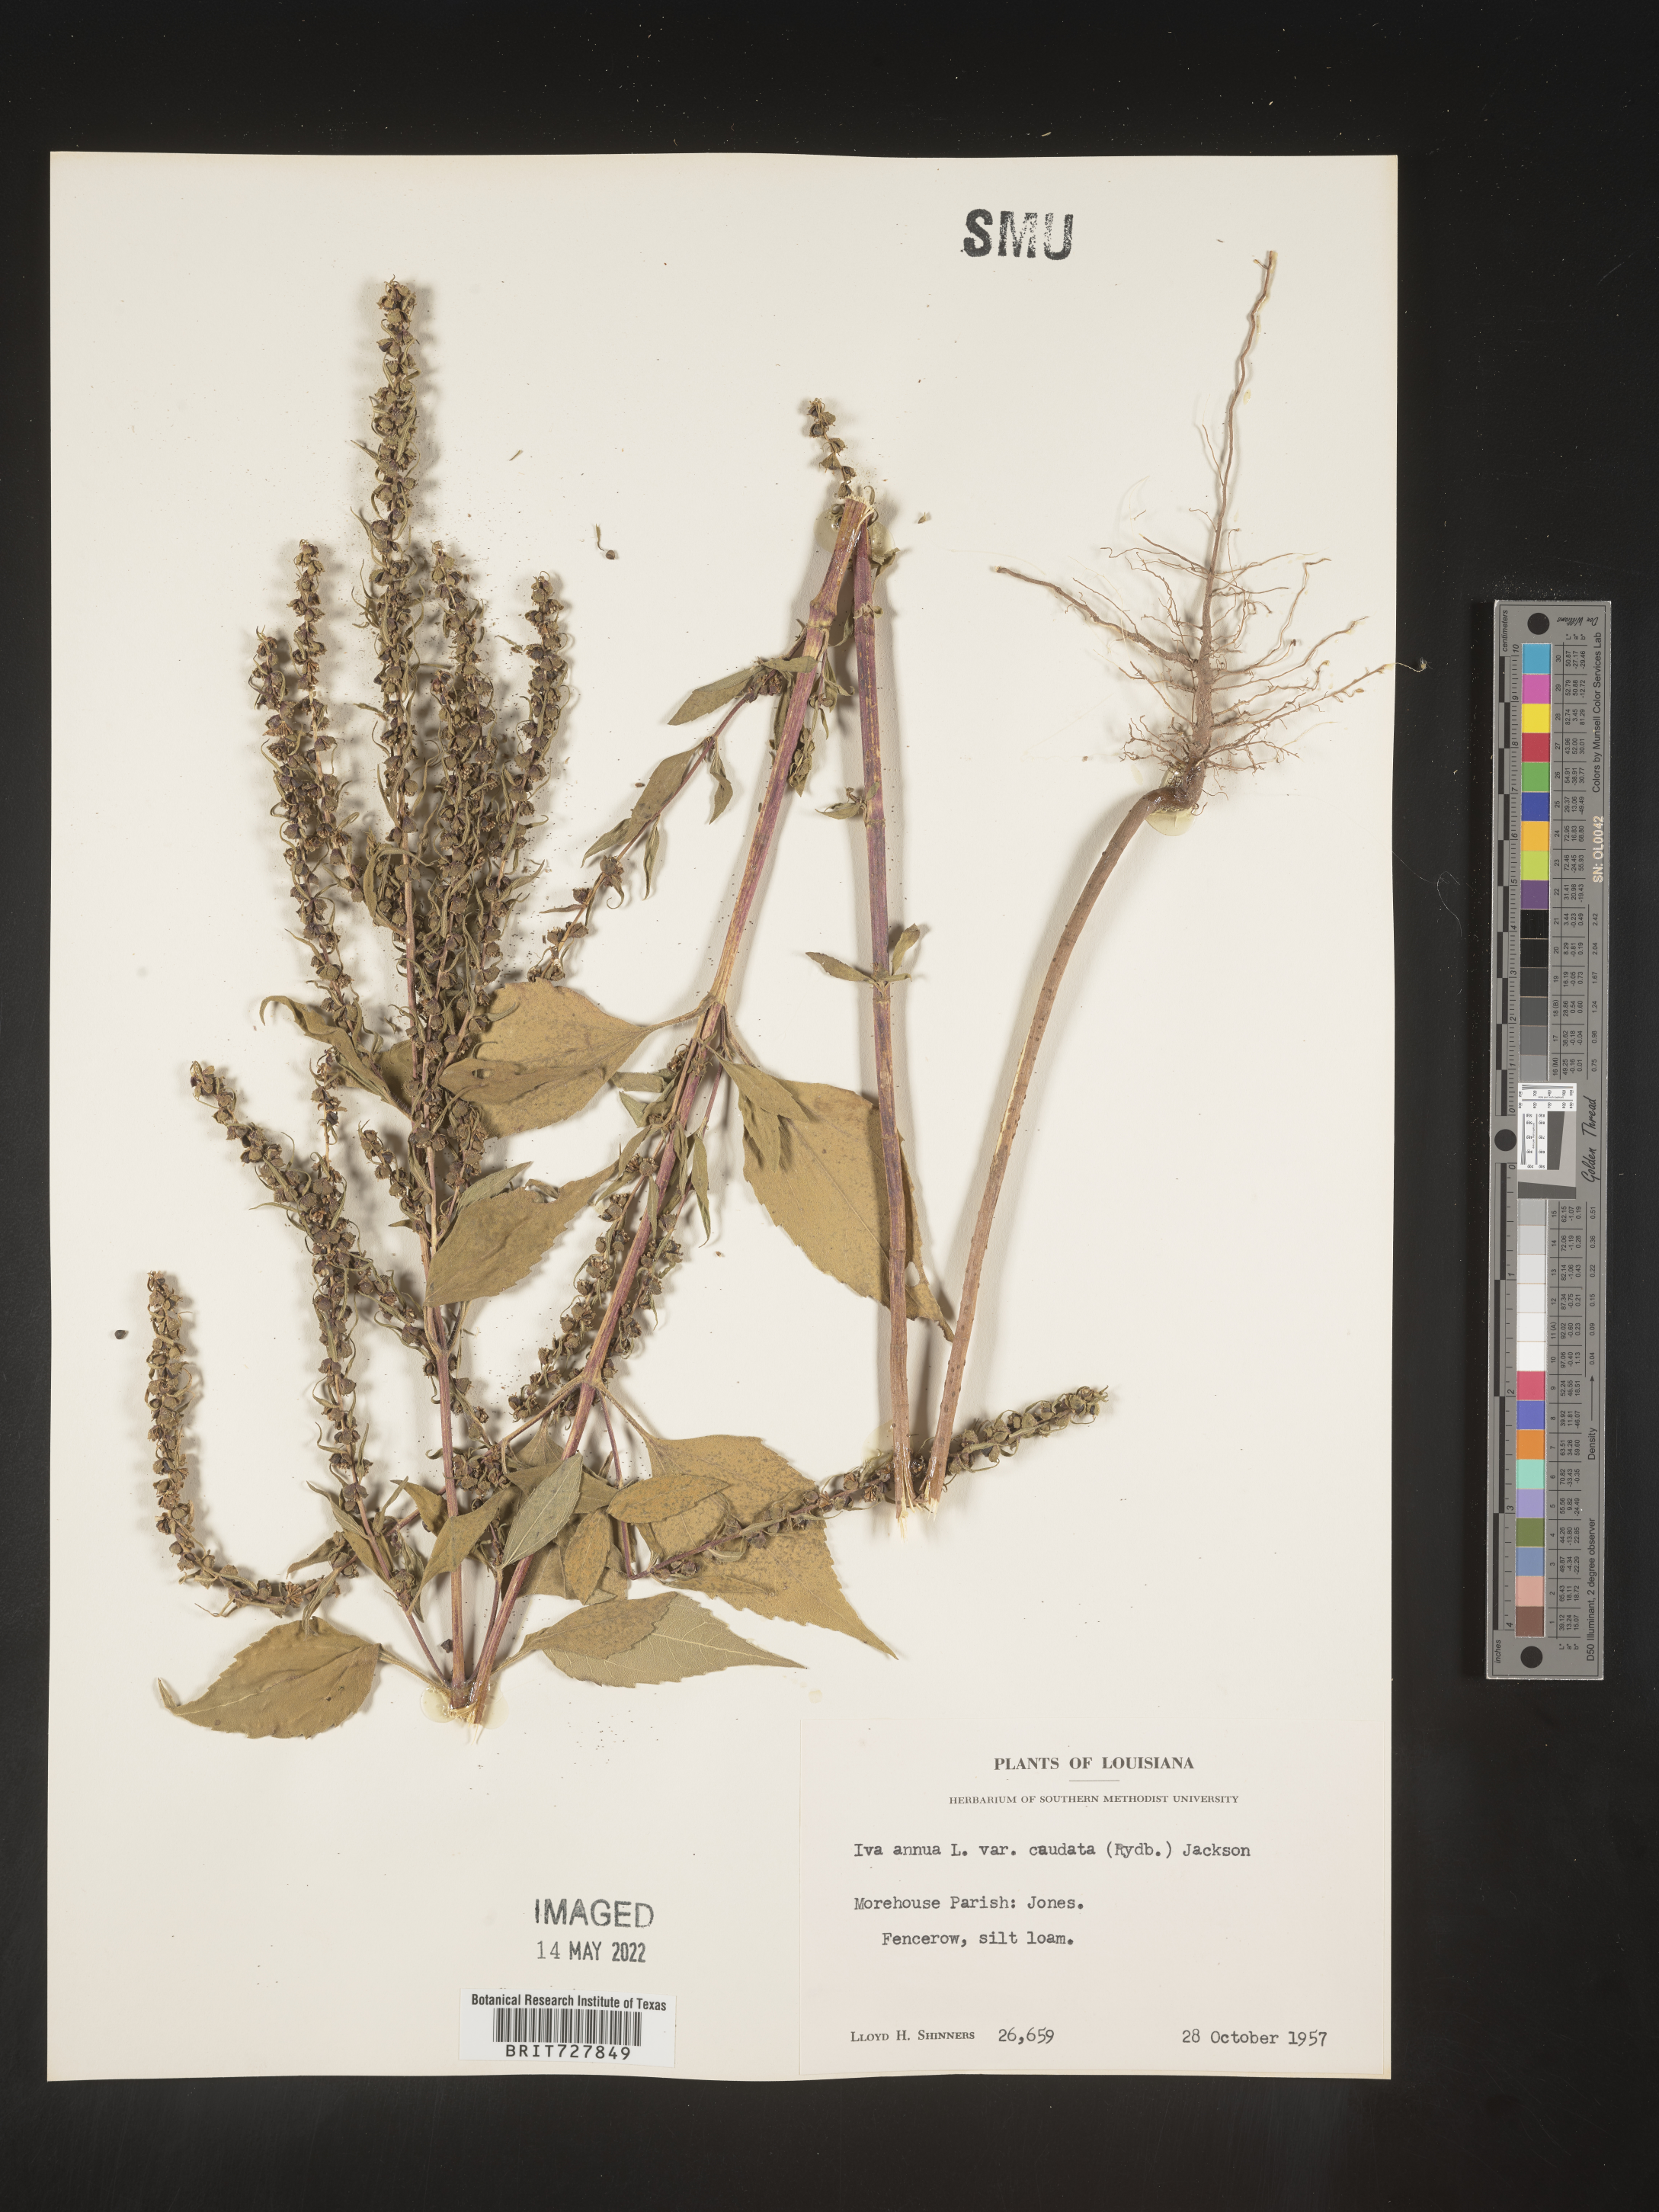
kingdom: Plantae
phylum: Tracheophyta
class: Magnoliopsida
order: Asterales
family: Asteraceae
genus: Iva
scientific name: Iva annua
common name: Marsh-elder
